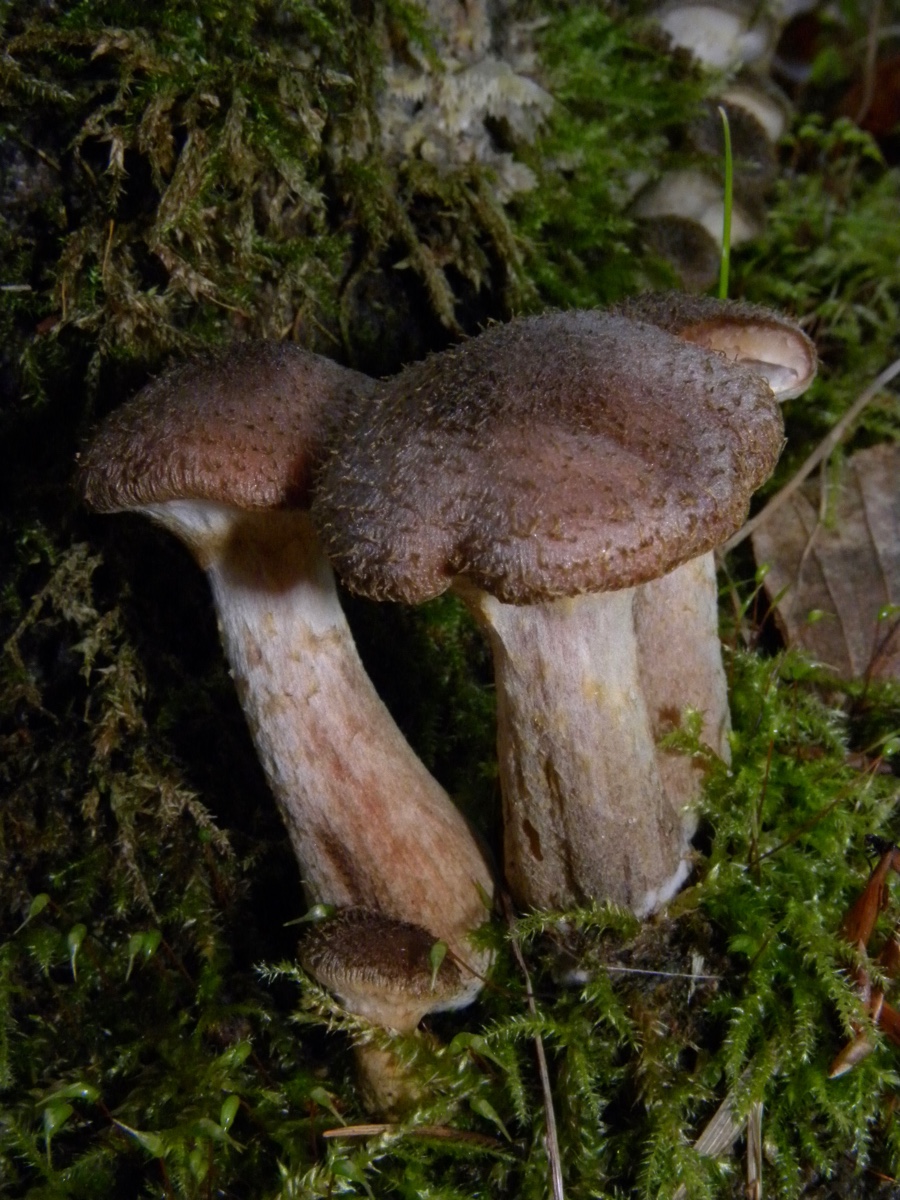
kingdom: Fungi
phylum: Basidiomycota
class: Agaricomycetes
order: Agaricales
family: Physalacriaceae
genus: Armillaria
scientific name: Armillaria lutea
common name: køllestokket honningsvamp
